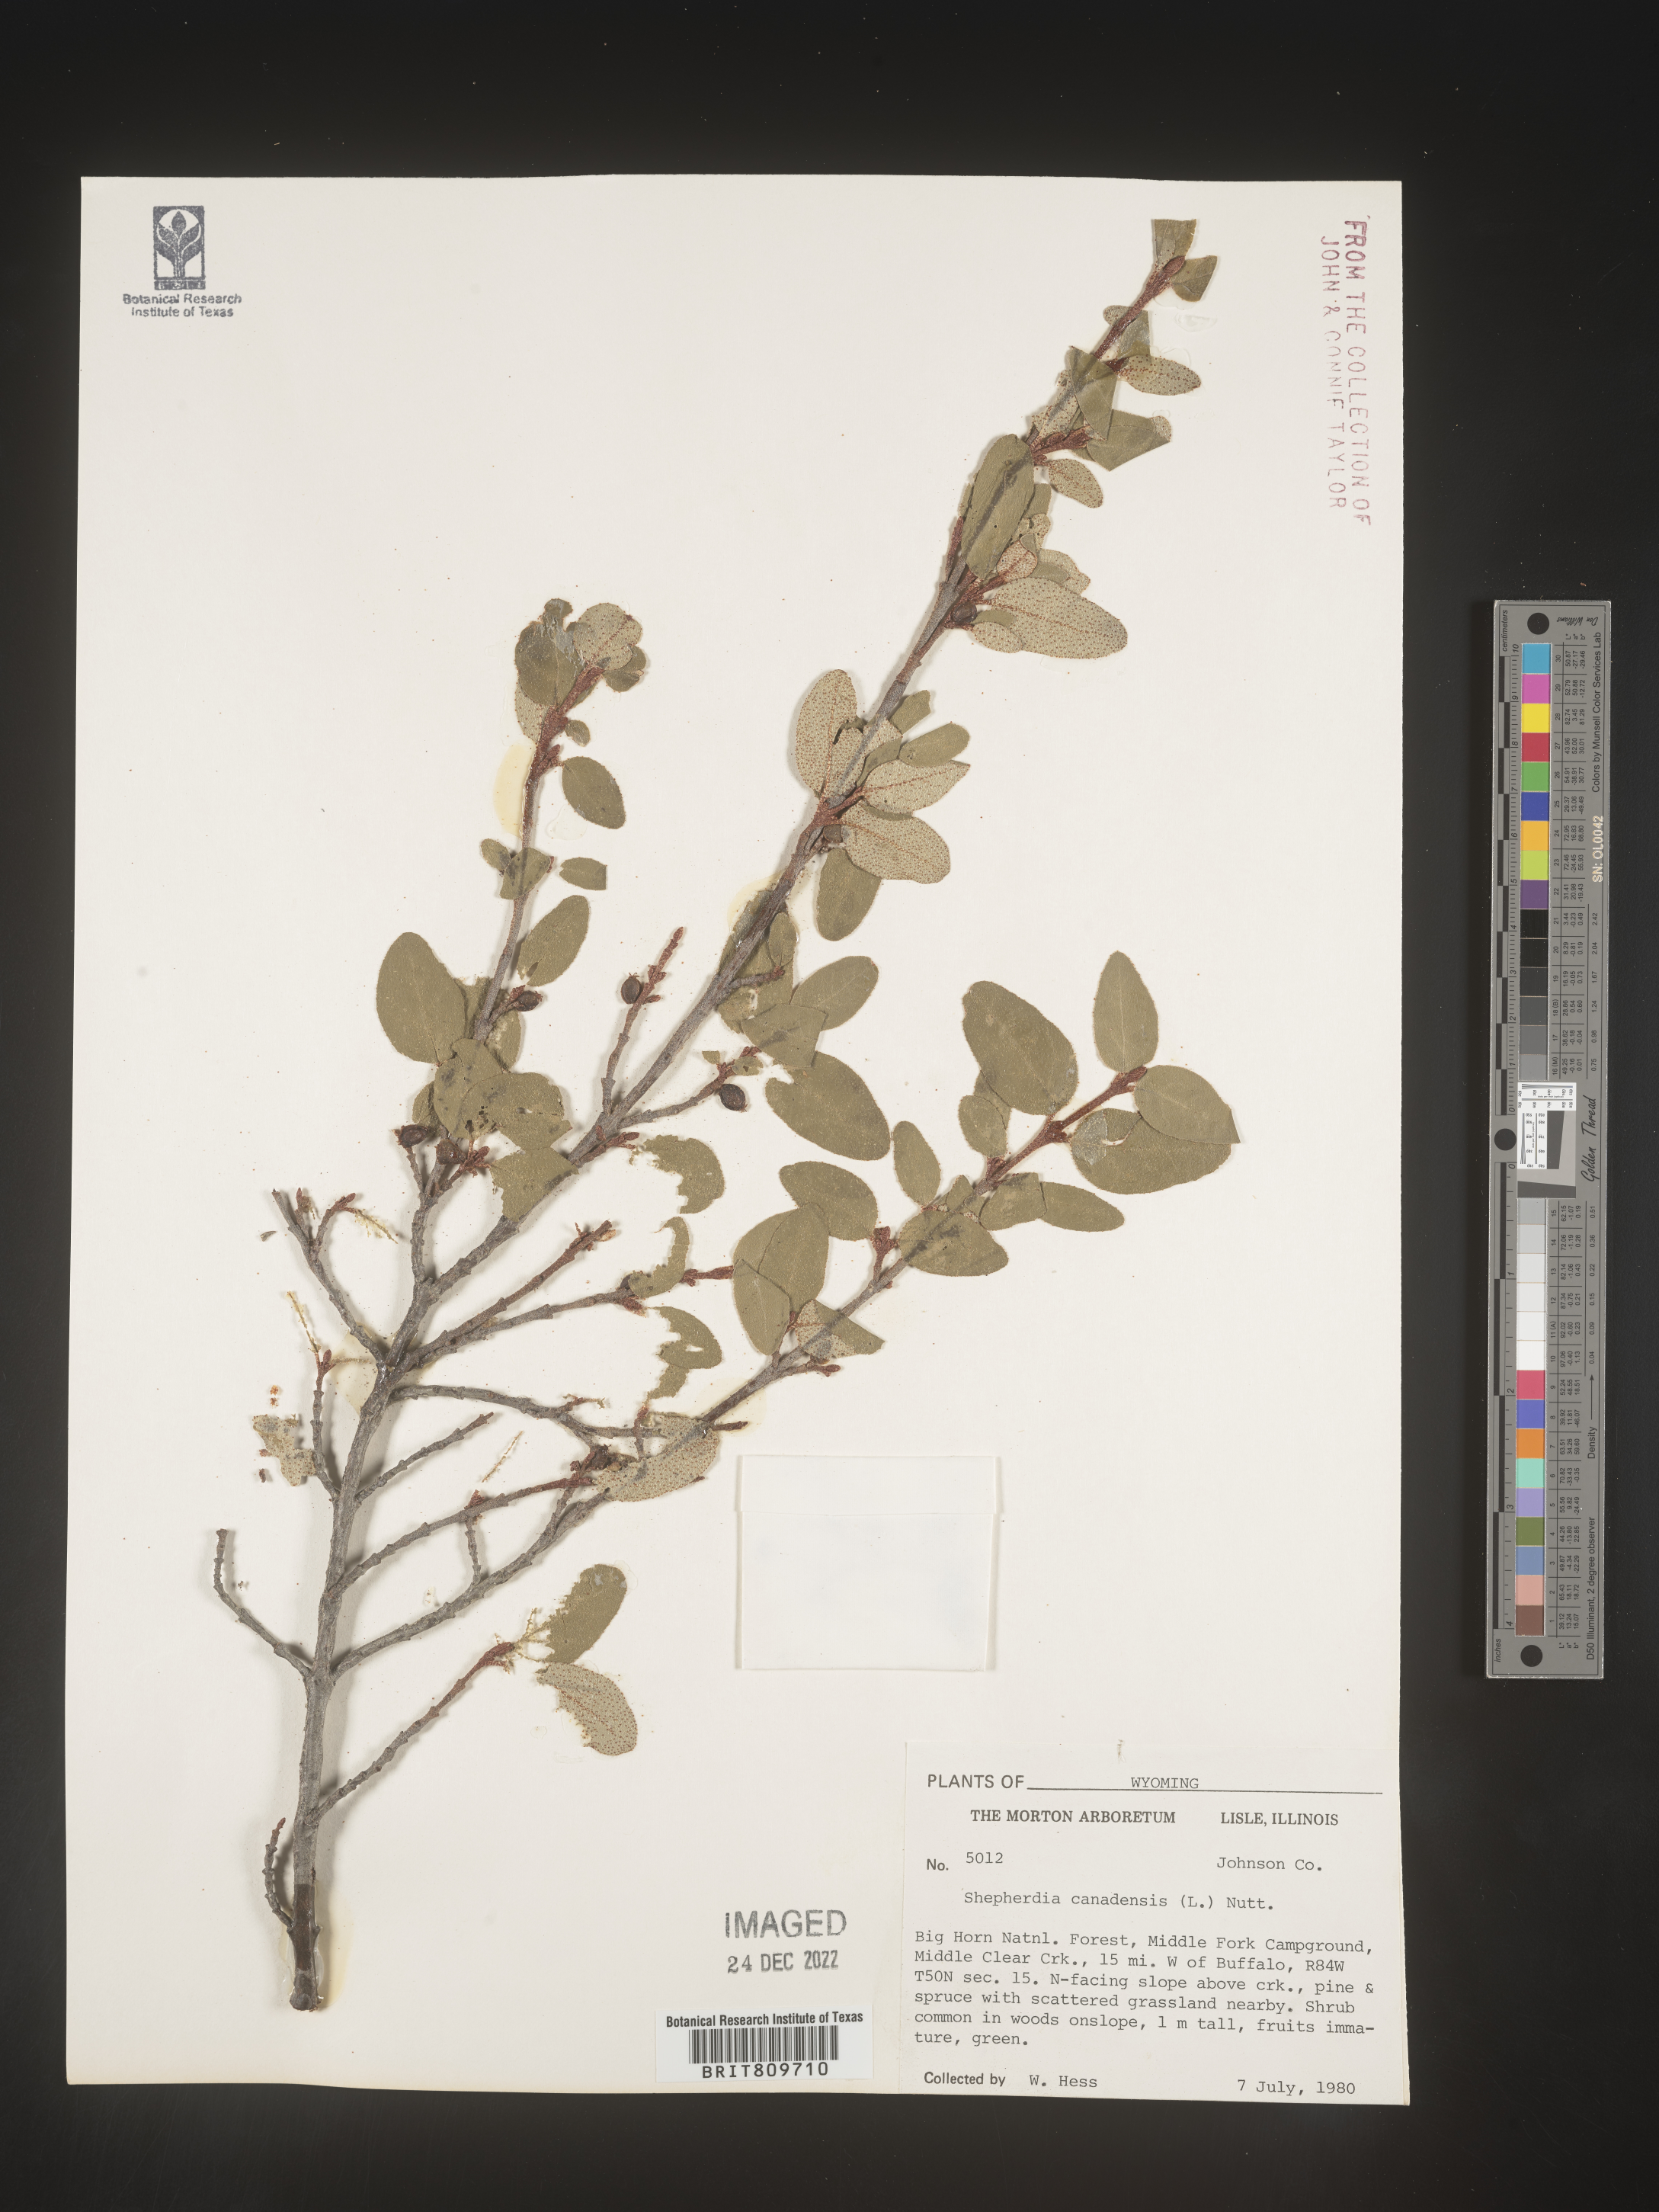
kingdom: Plantae
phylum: Tracheophyta
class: Magnoliopsida
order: Rosales
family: Elaeagnaceae
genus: Shepherdia
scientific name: Shepherdia canadensis
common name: Soapberry
